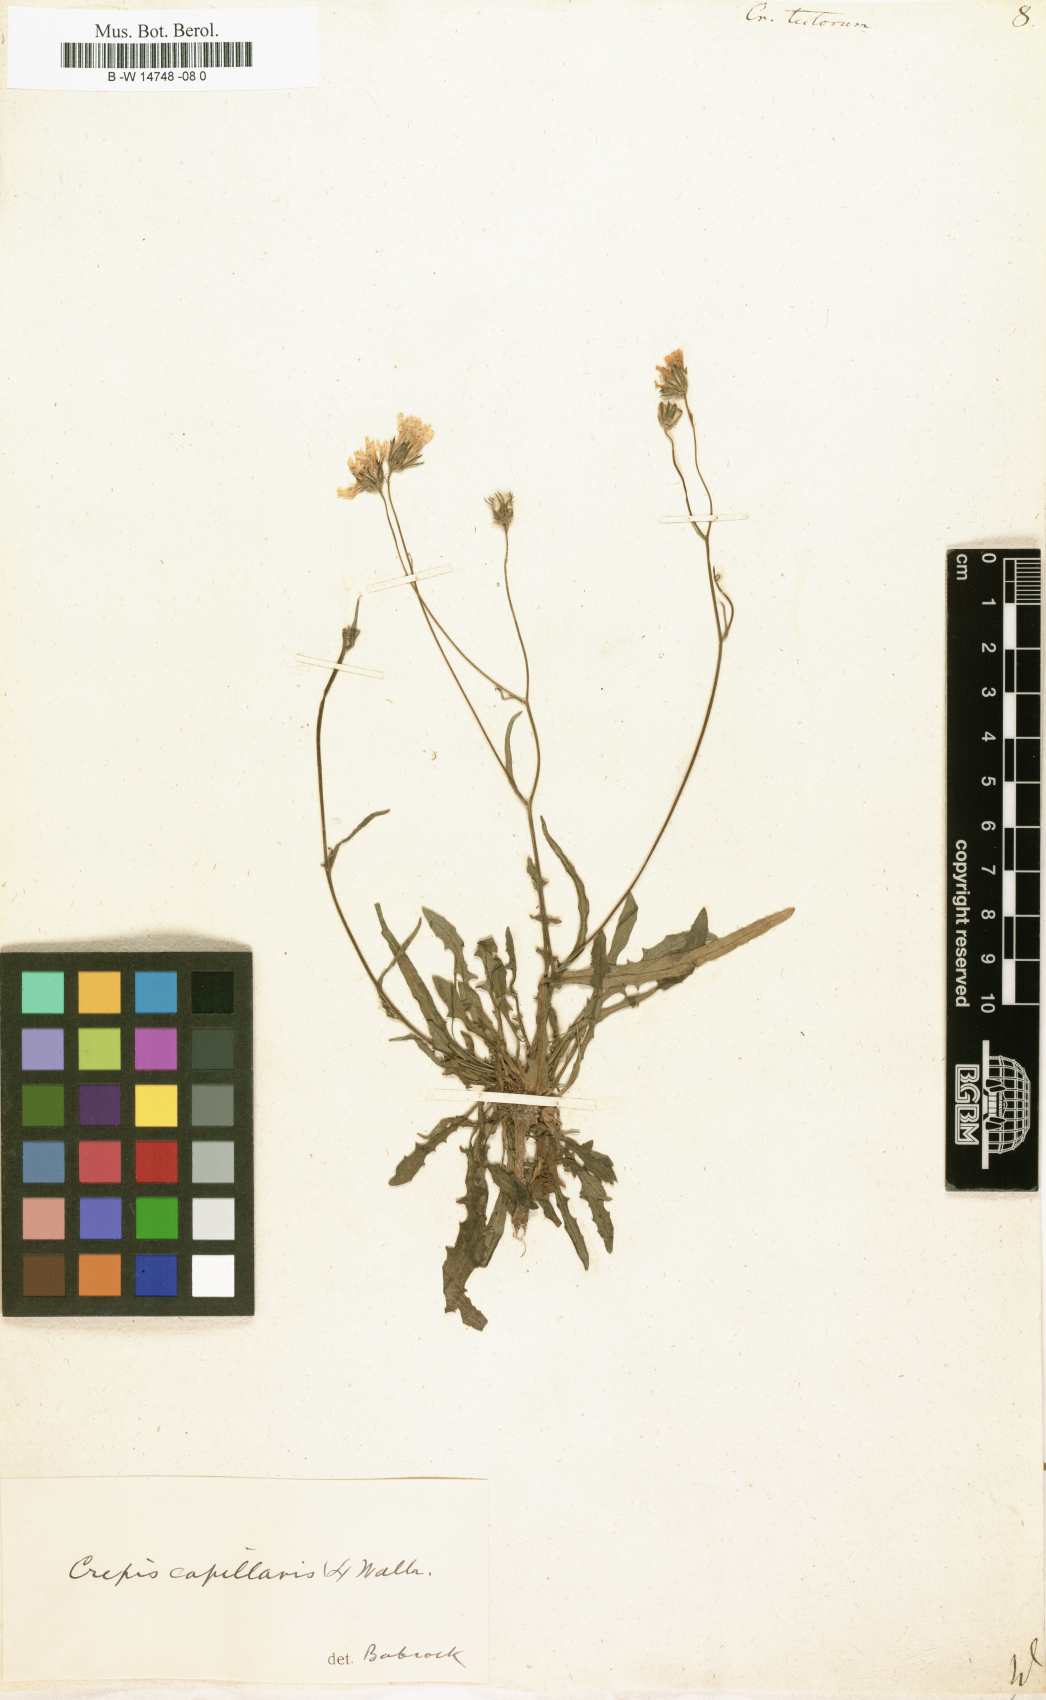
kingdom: Plantae
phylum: Tracheophyta
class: Magnoliopsida
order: Asterales
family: Asteraceae
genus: Crepis
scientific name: Crepis tectorum
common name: Narrow-leaved hawk's-beard
